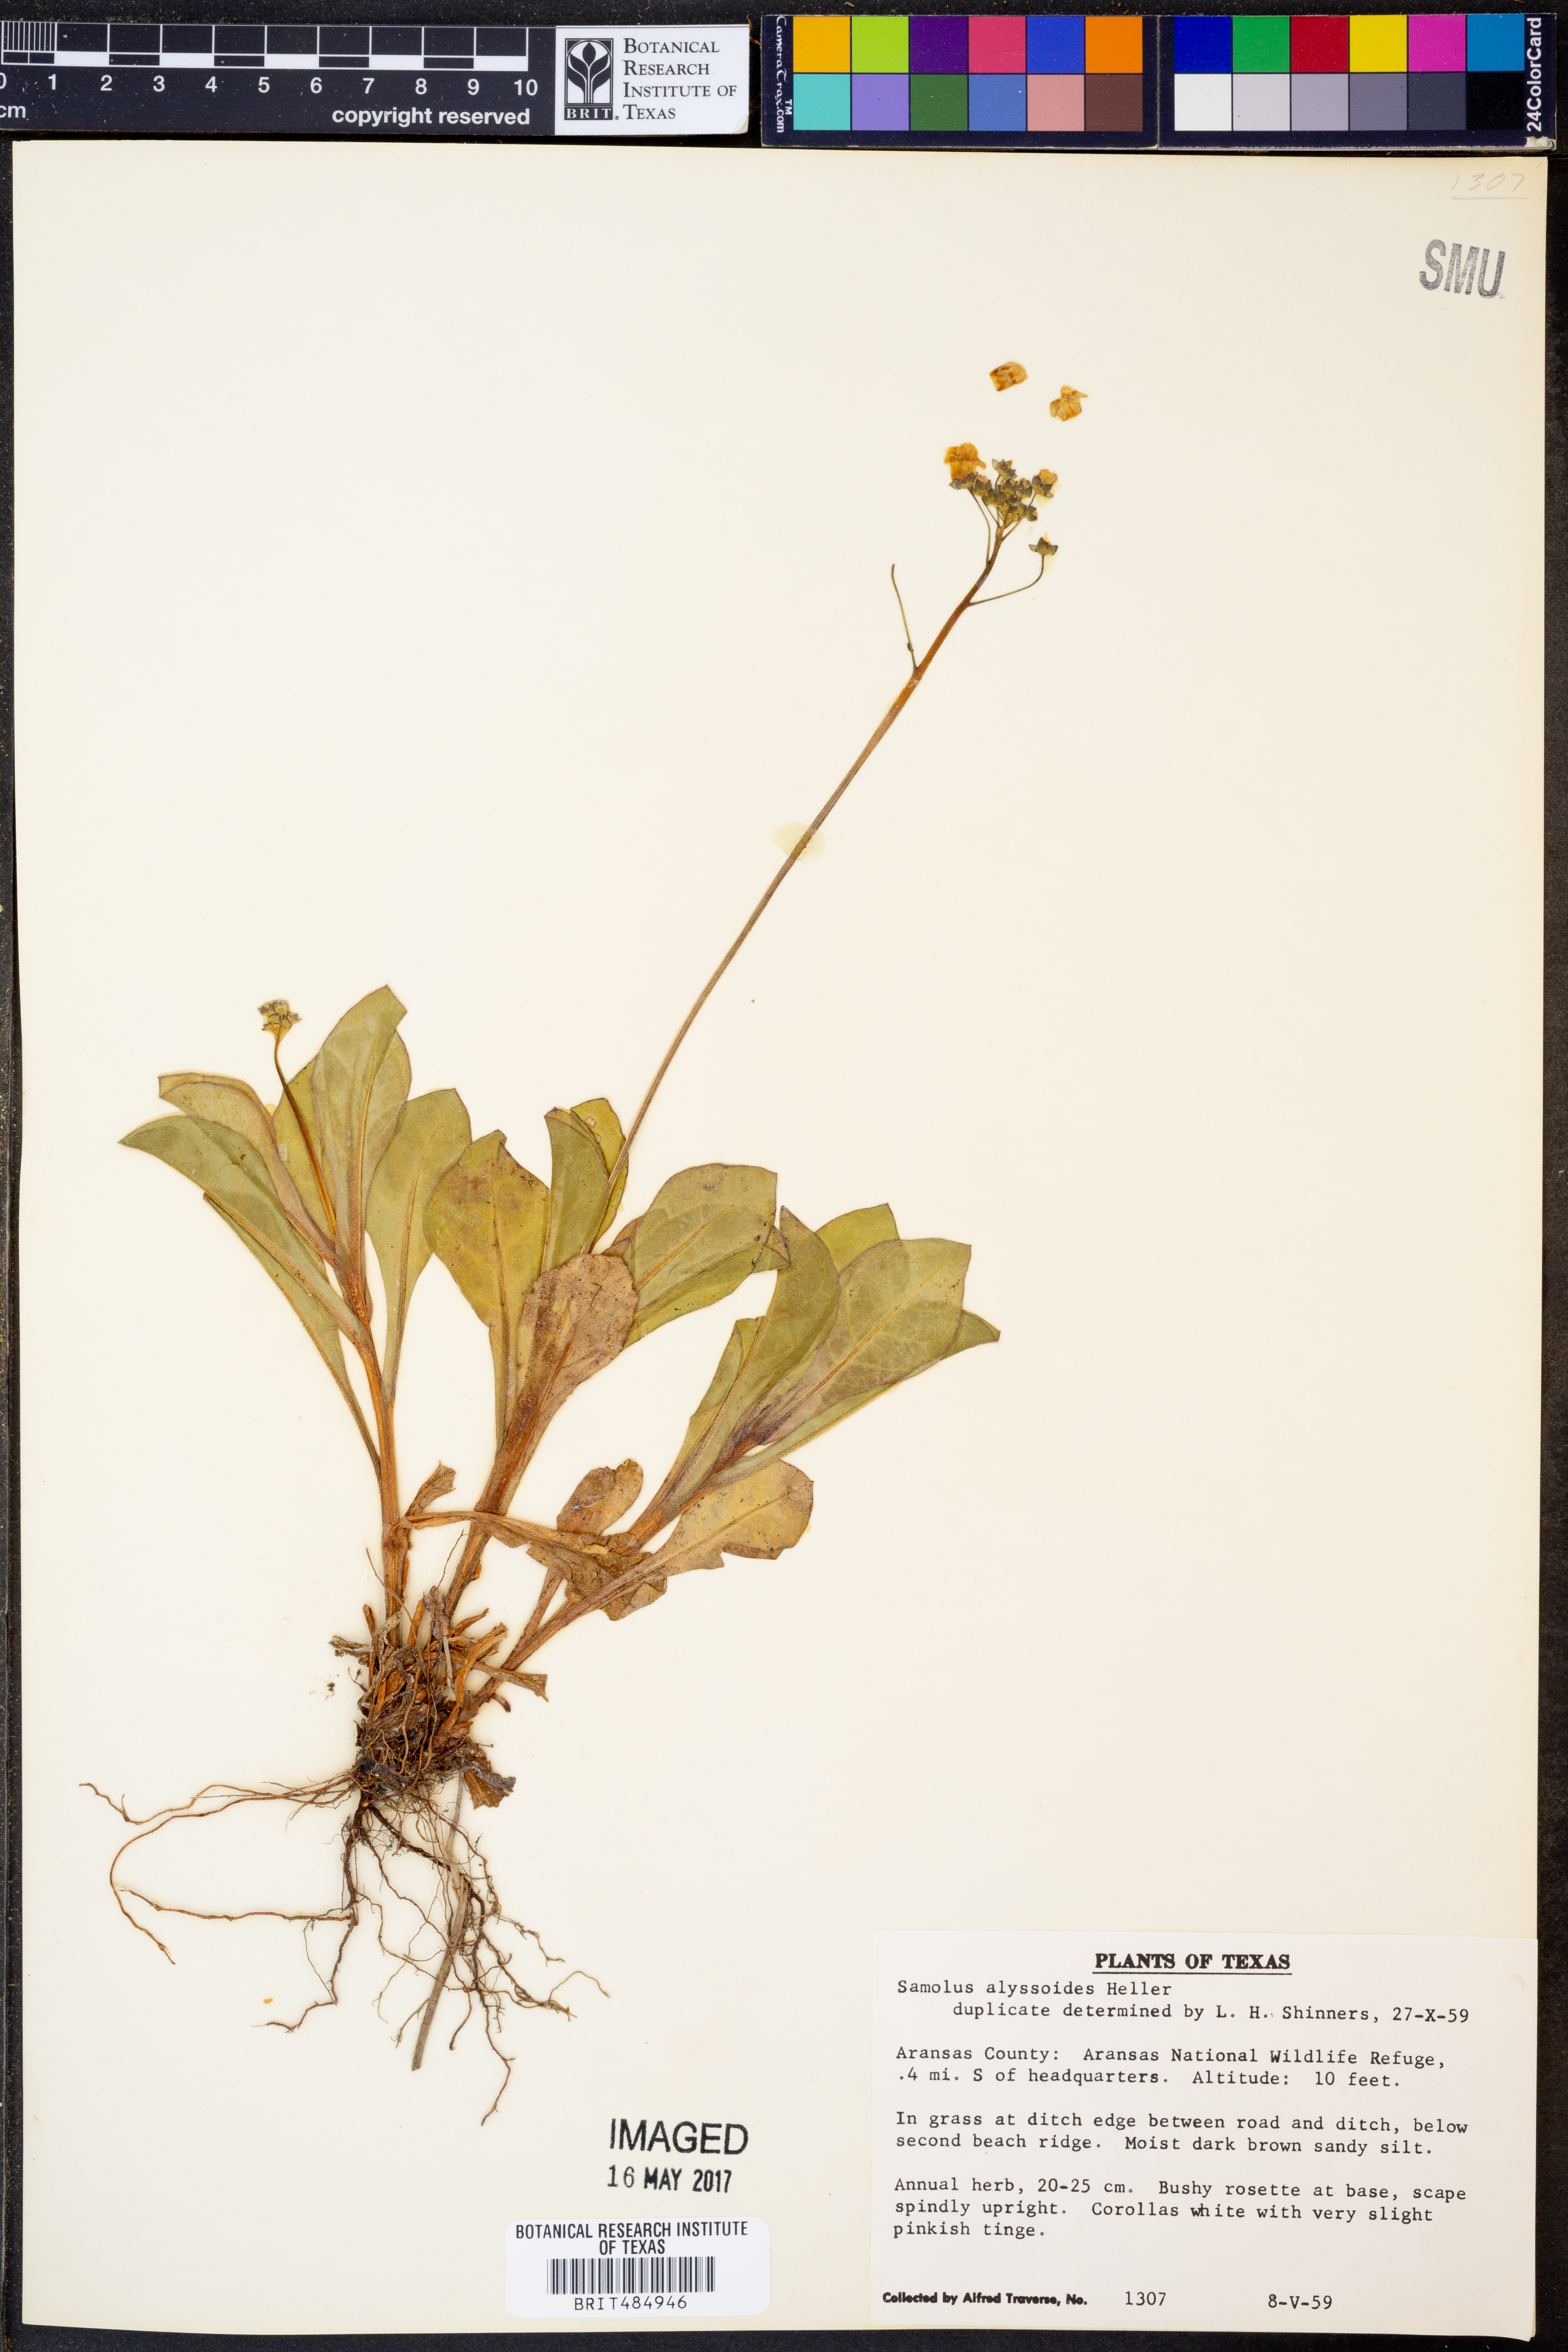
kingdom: Plantae
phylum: Tracheophyta
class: Magnoliopsida
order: Ericales
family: Primulaceae
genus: Samolus
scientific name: Samolus ebracteatus
